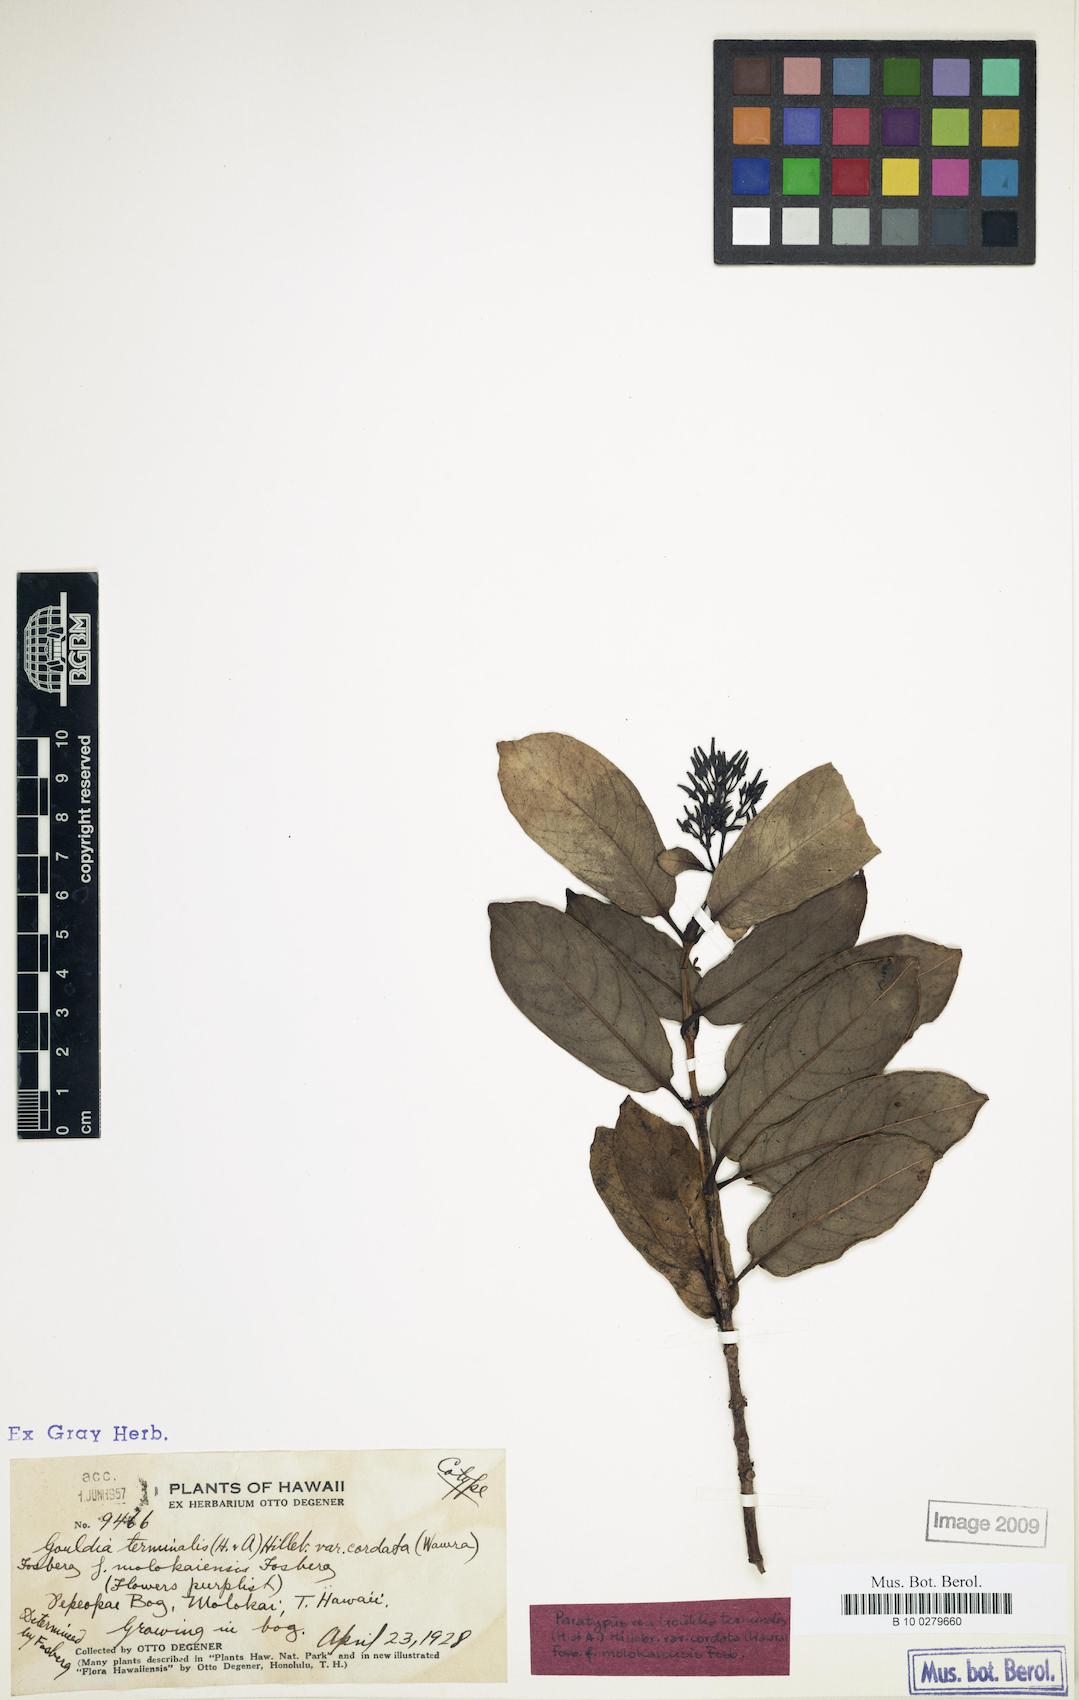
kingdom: Plantae
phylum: Tracheophyta
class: Magnoliopsida
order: Gentianales
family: Rubiaceae
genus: Kadua
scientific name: Kadua affinis
